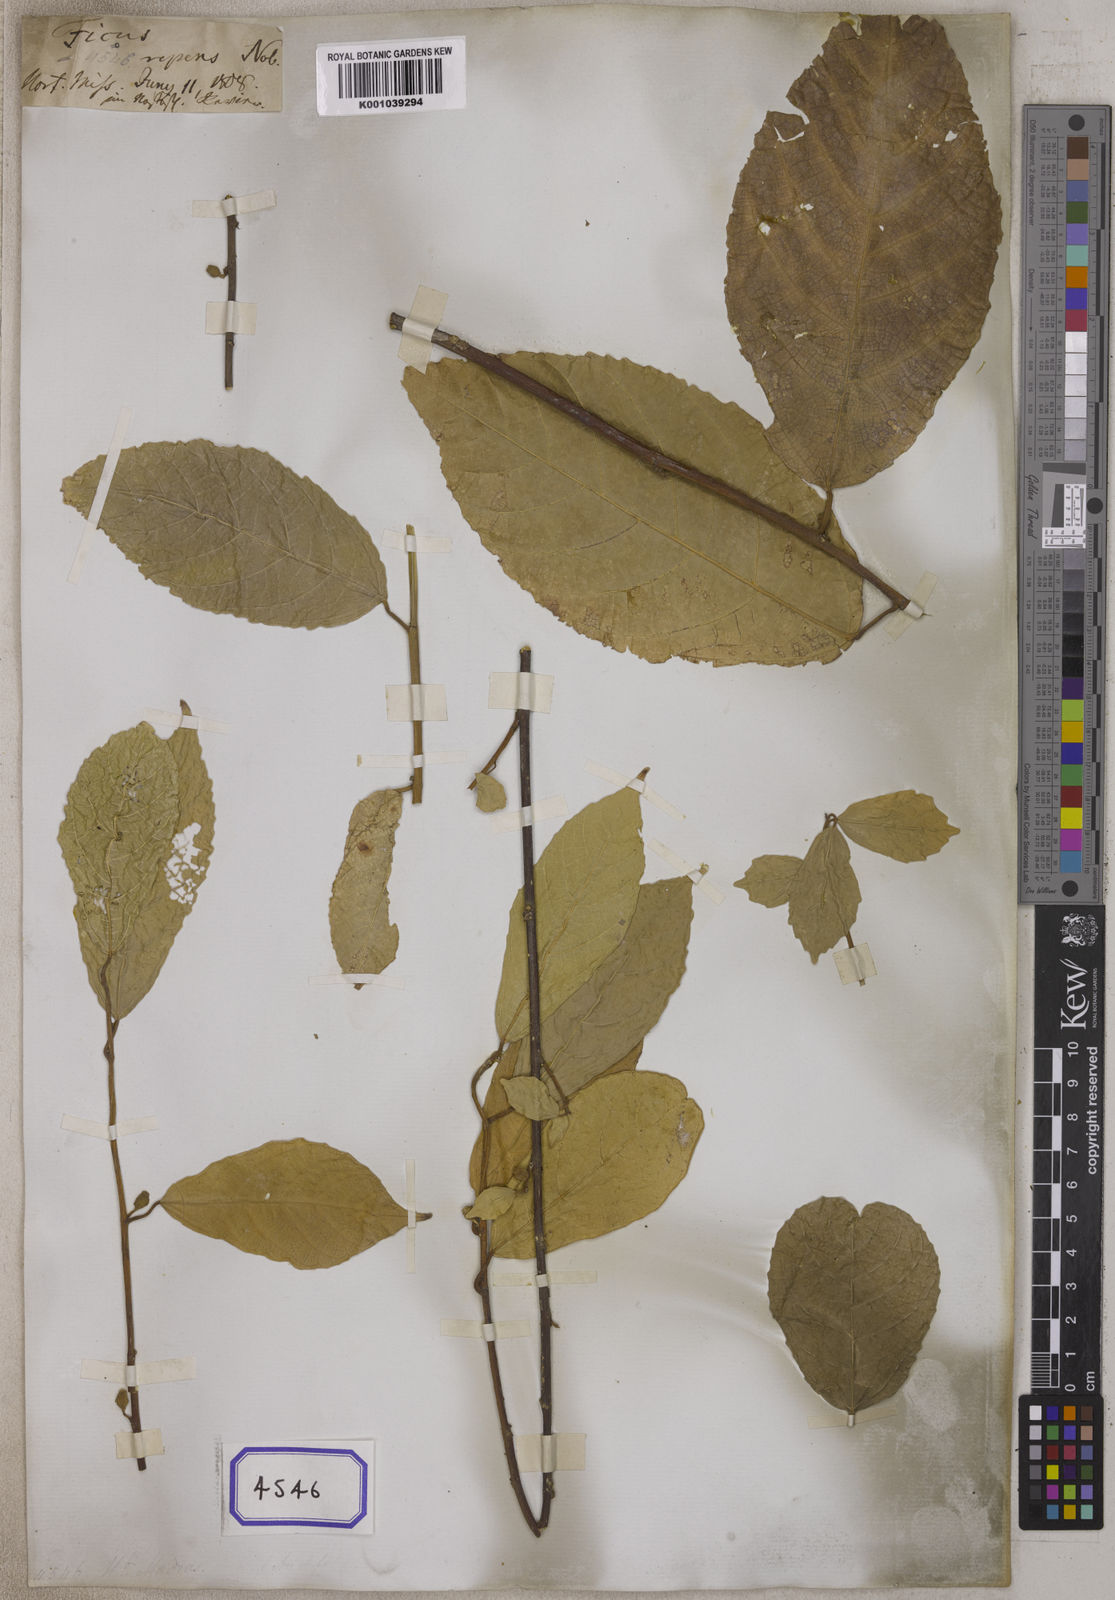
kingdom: Plantae
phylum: Tracheophyta
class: Magnoliopsida
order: Rosales
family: Moraceae
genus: Ficus
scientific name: Ficus
